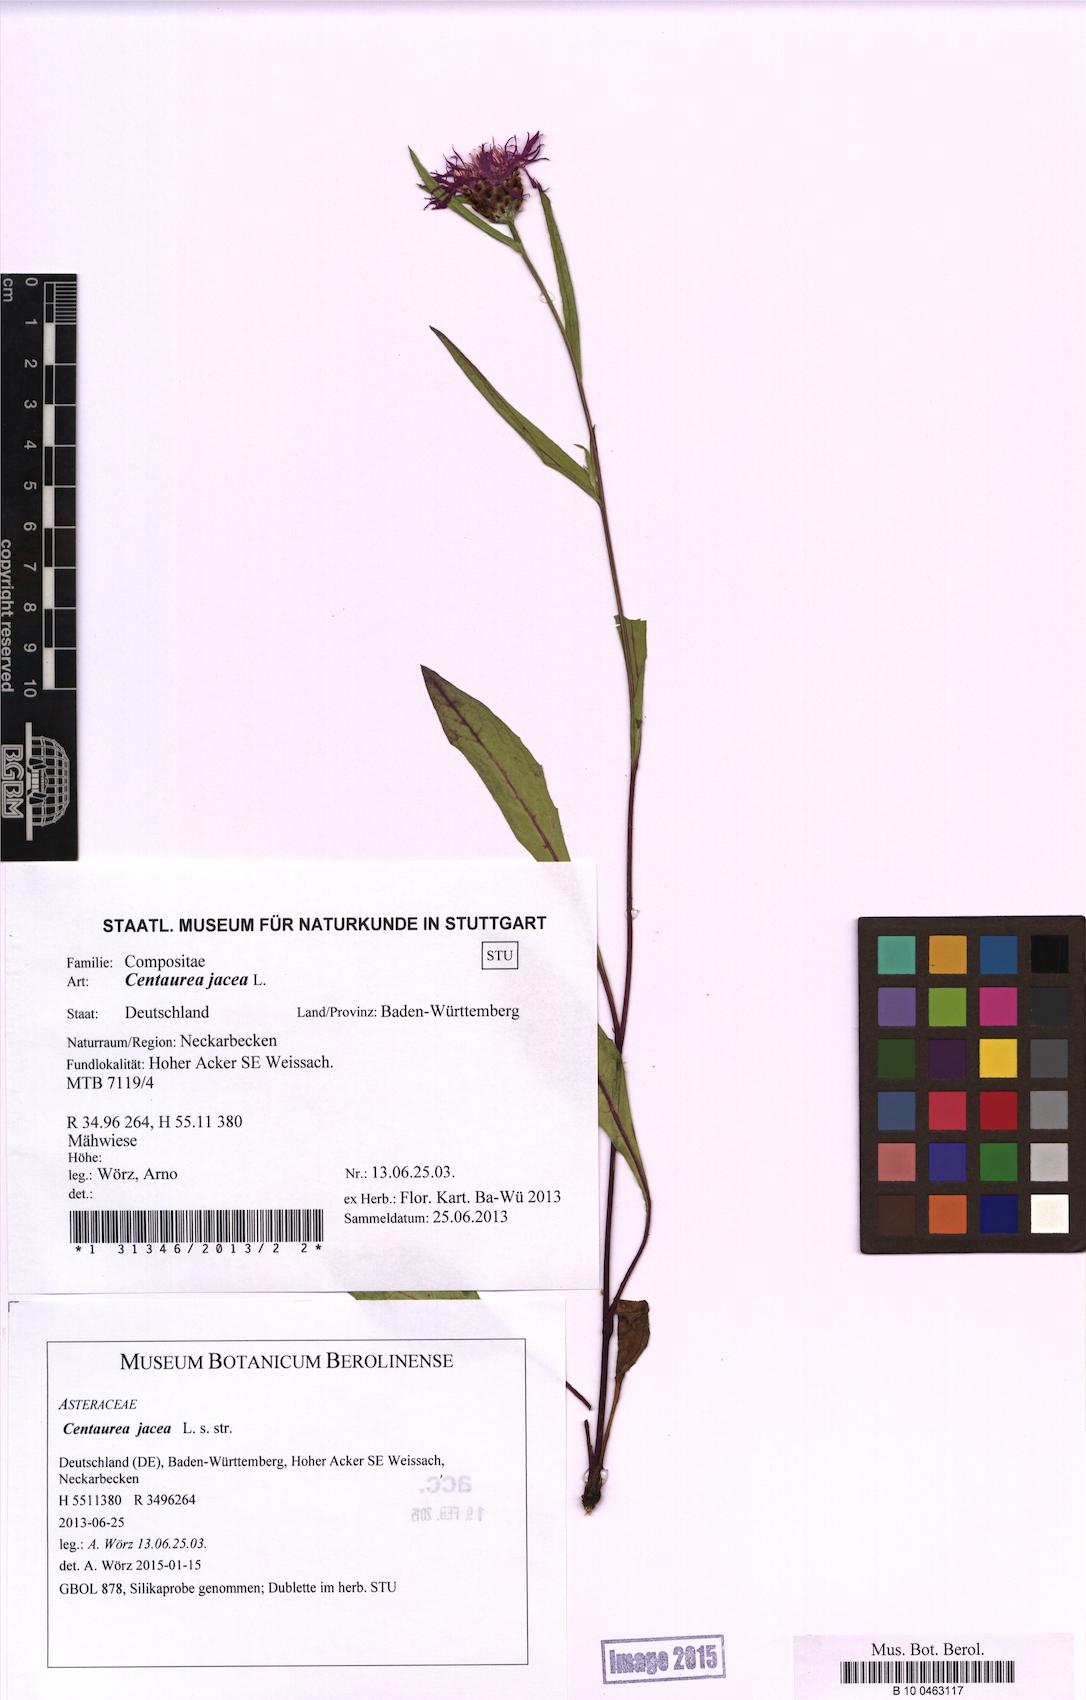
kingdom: Plantae
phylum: Tracheophyta
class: Magnoliopsida
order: Asterales
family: Asteraceae
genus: Centaurea
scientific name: Centaurea jacea
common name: Brown knapweed
